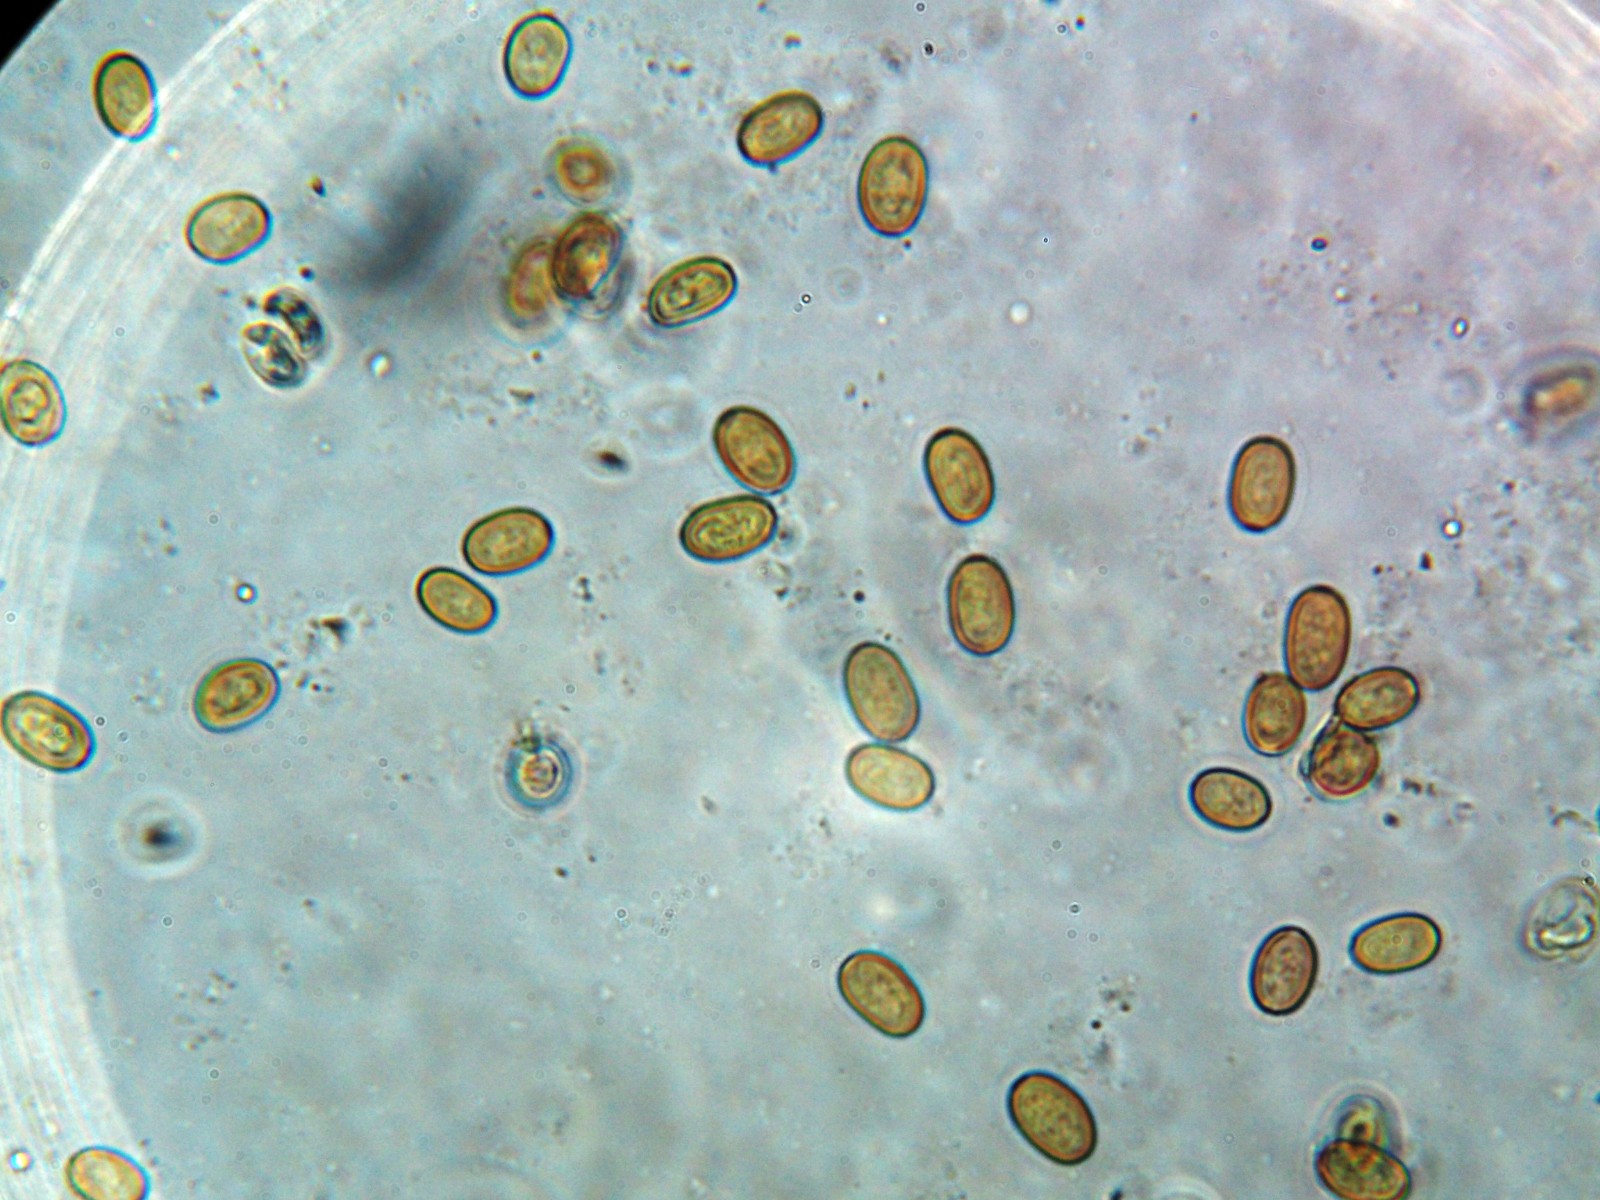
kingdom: Fungi
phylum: Basidiomycota
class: Agaricomycetes
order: Agaricales
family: Strophariaceae
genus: Pholiota
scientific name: Pholiota
